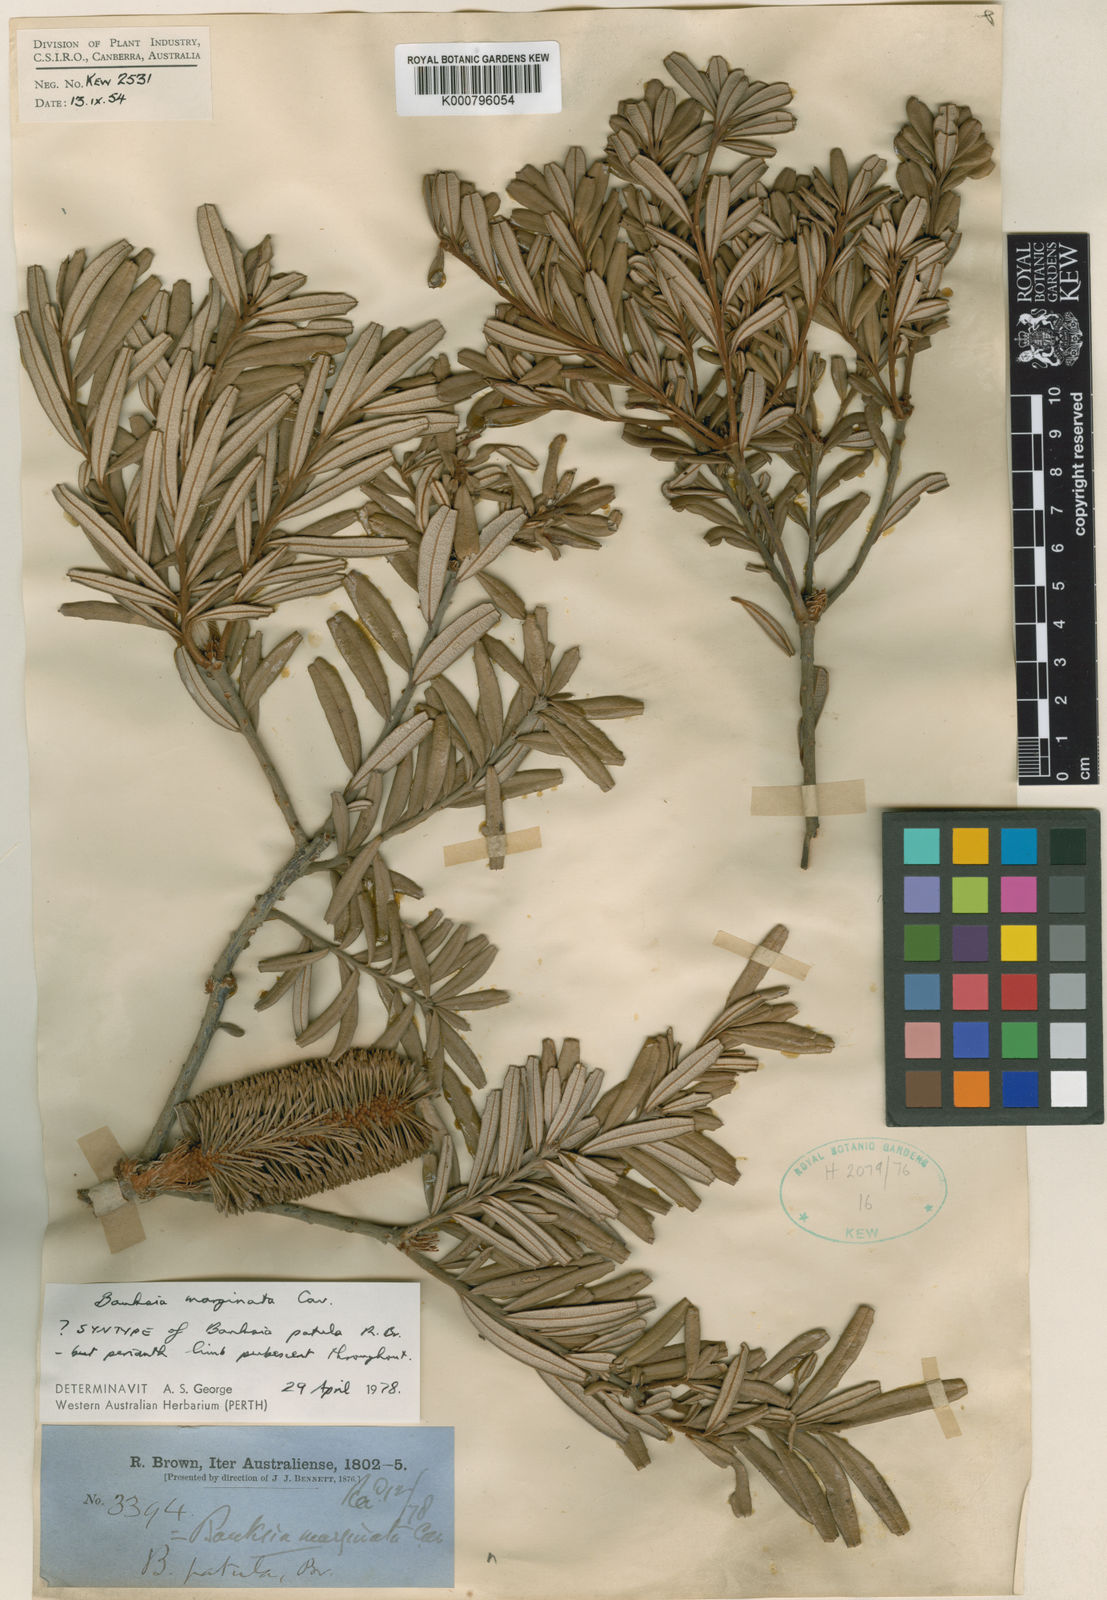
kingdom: Plantae
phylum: Tracheophyta
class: Magnoliopsida
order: Proteales
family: Proteaceae
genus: Banksia
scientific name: Banksia marginata
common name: Silver banksia
